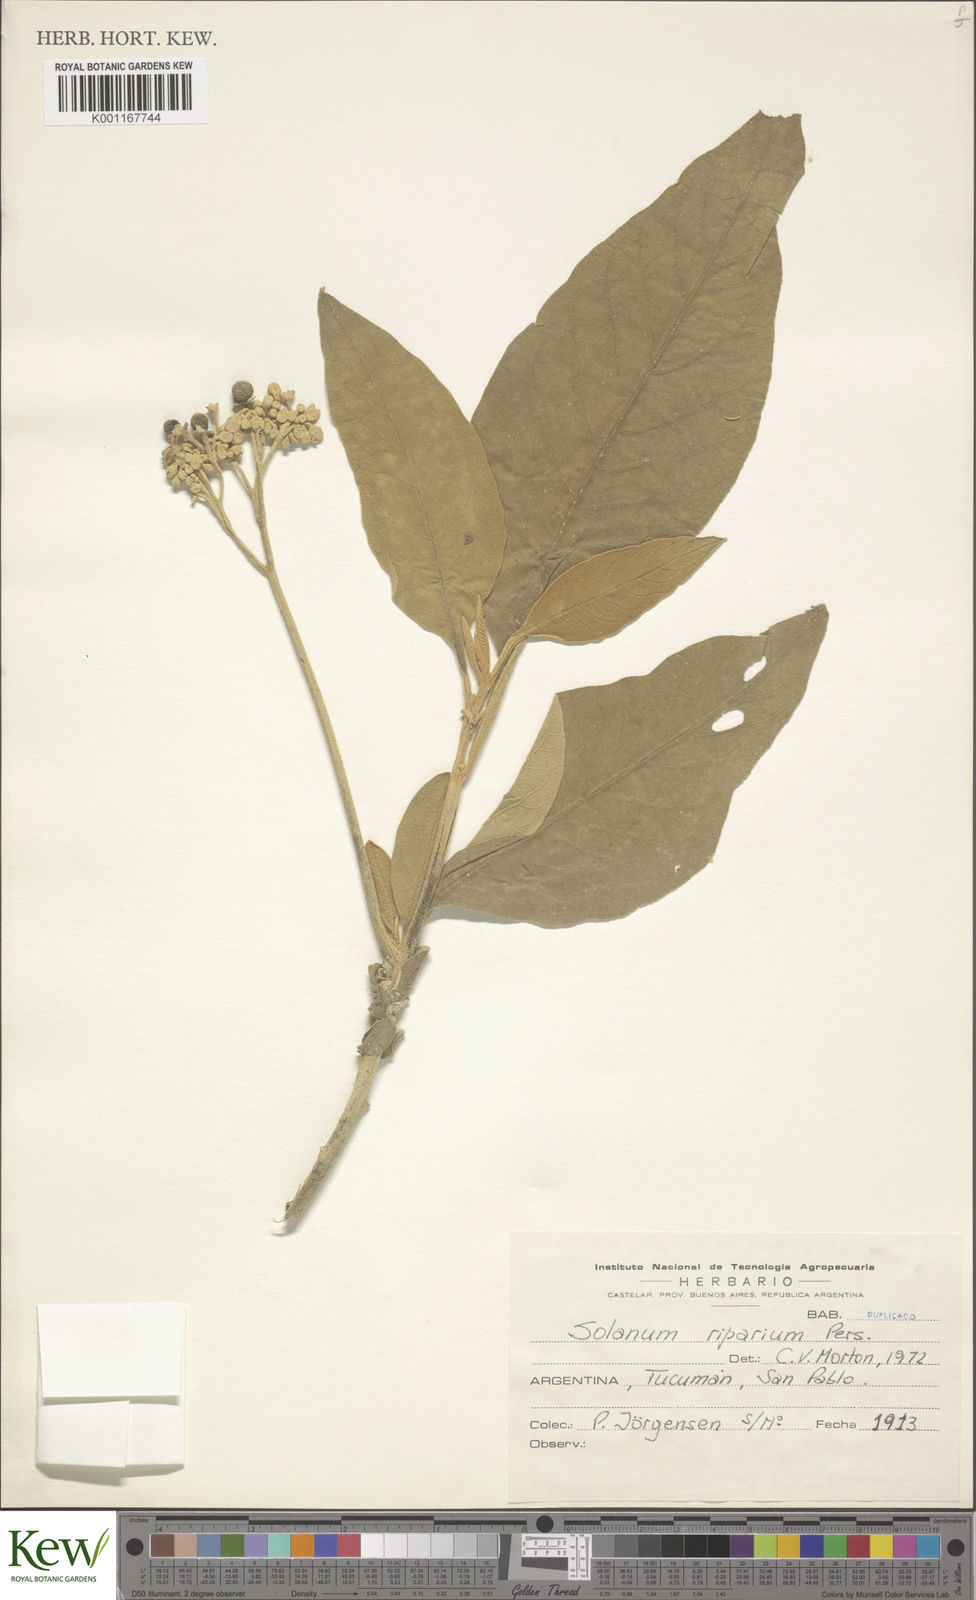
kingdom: Plantae
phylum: Tracheophyta
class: Magnoliopsida
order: Solanales
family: Solanaceae
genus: Solanum
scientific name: Solanum riparium
